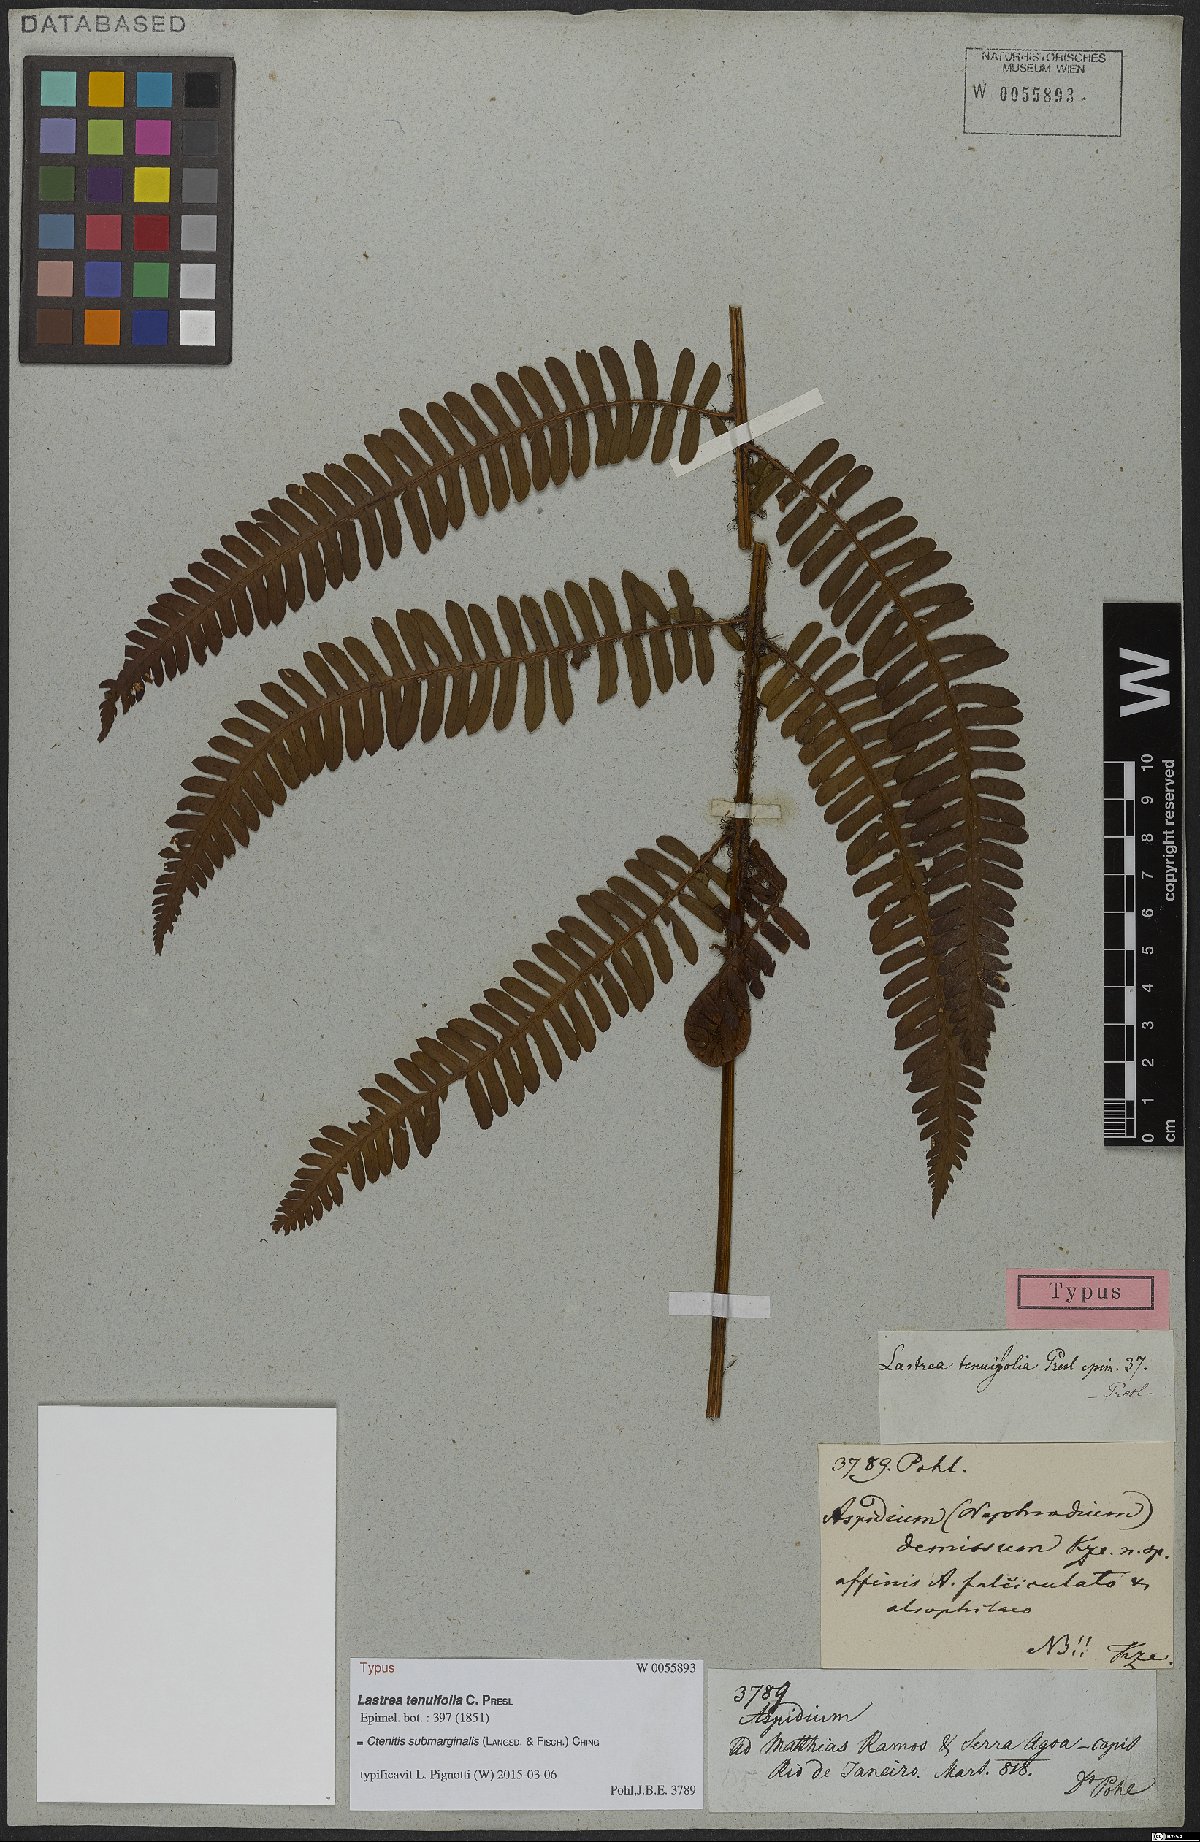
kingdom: Plantae
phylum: Tracheophyta
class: Polypodiopsida
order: Polypodiales
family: Dryopteridaceae
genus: Ctenitis
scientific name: Ctenitis submarginalis
